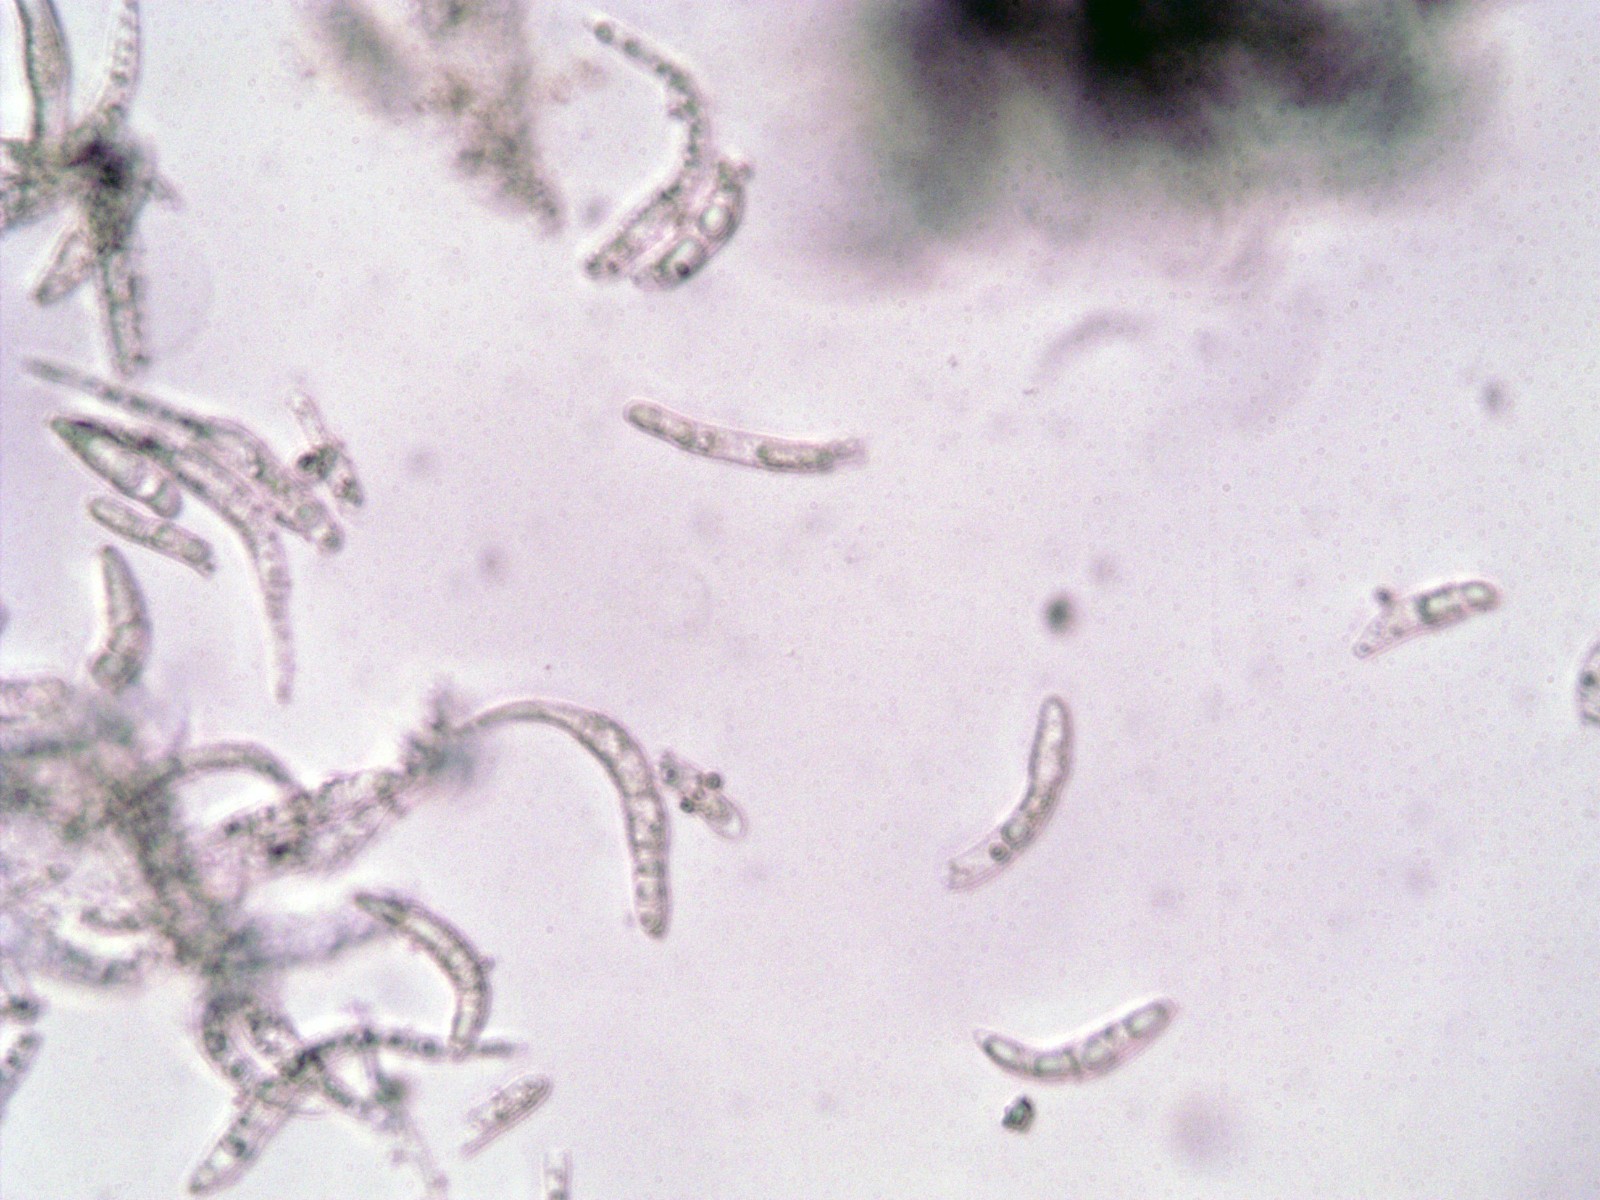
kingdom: Fungi
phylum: Ascomycota
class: Dothideomycetes
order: Mycosphaerellales
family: Mycosphaerellaceae
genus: Mycosphaerella
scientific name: Mycosphaerella ulmi
